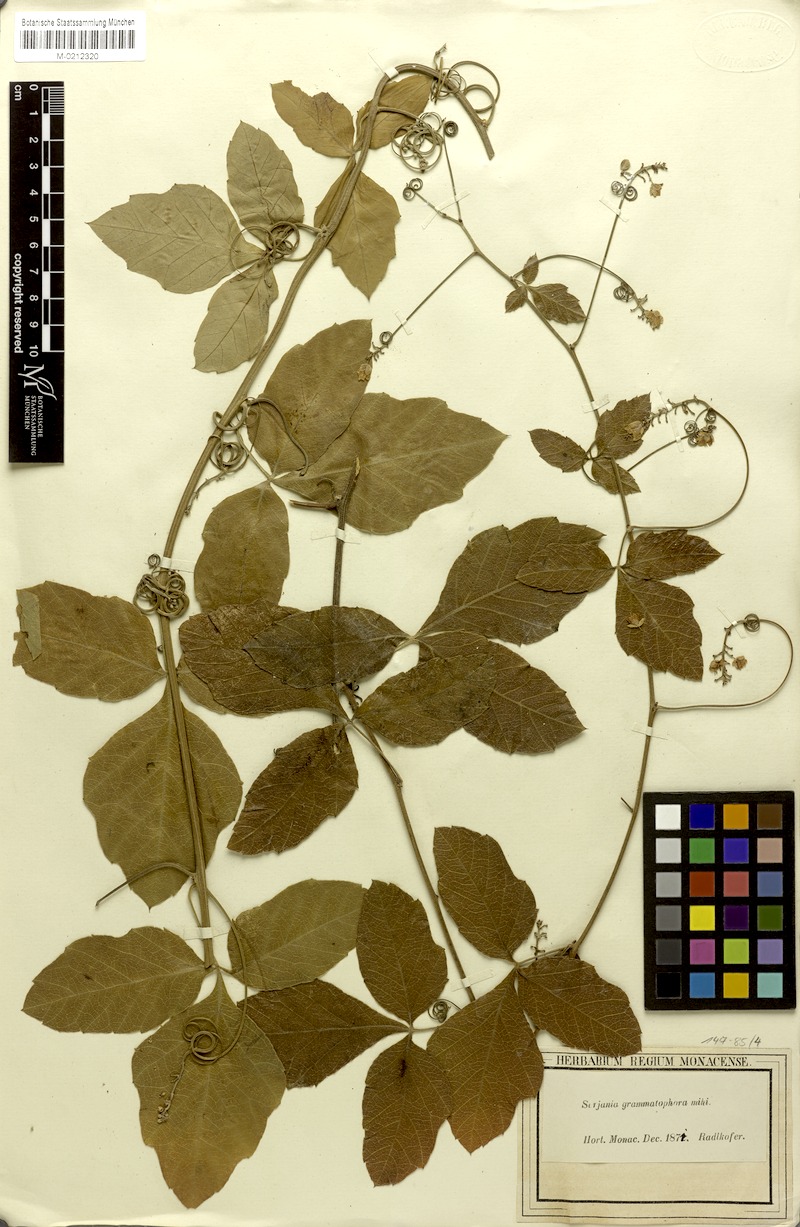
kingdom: Plantae
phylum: Tracheophyta
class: Magnoliopsida
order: Sapindales
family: Sapindaceae
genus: Serjania
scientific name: Serjania grammatophora
